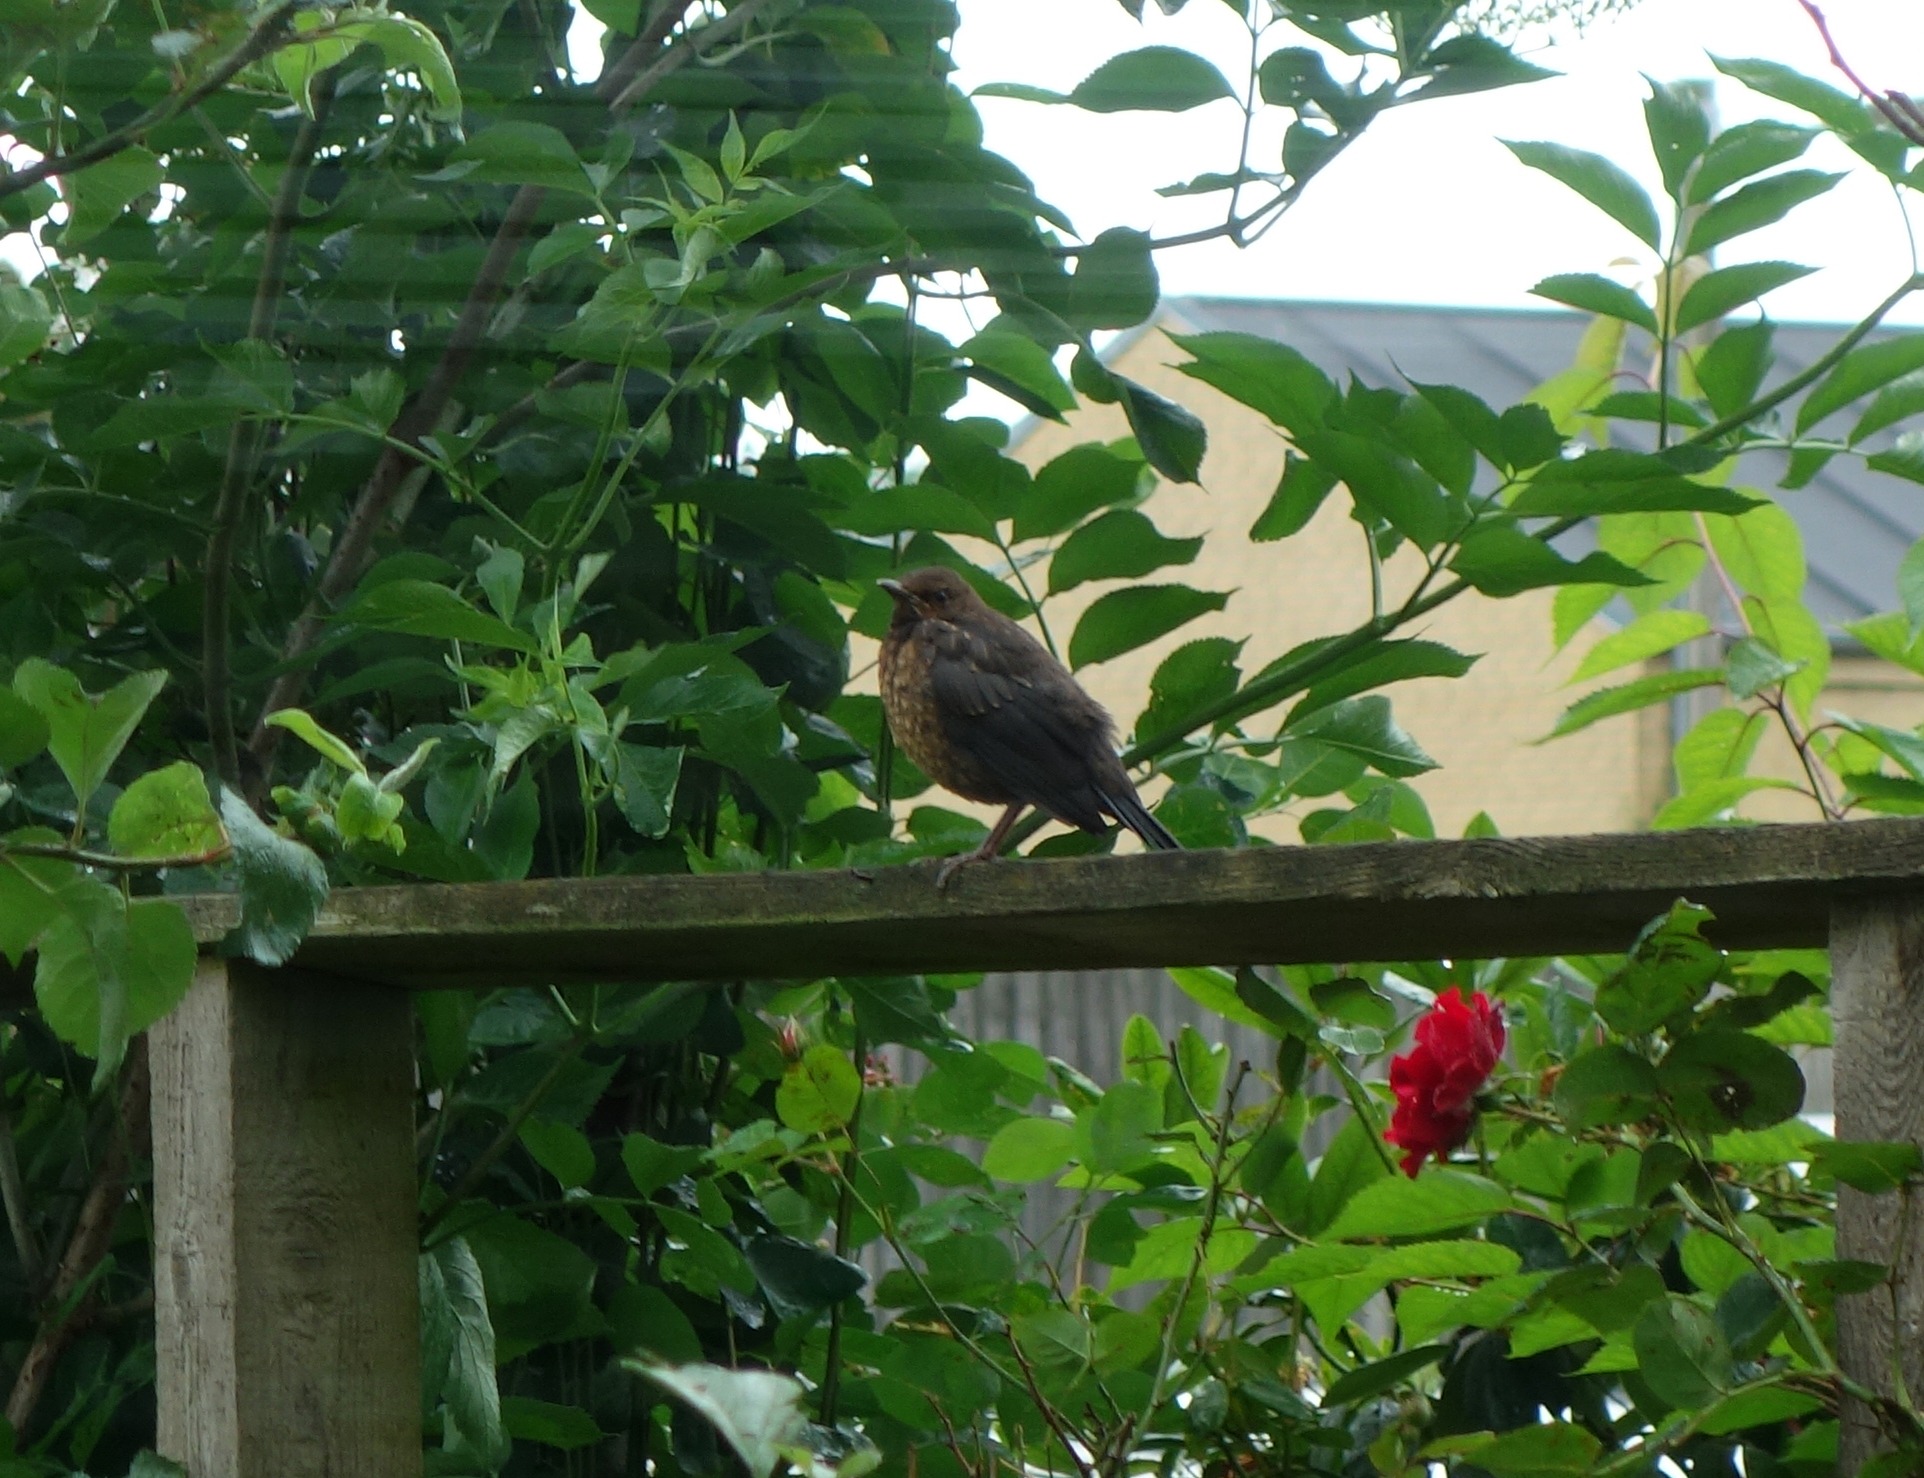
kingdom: Animalia
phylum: Chordata
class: Aves
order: Passeriformes
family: Turdidae
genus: Turdus
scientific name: Turdus merula
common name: Solsort
